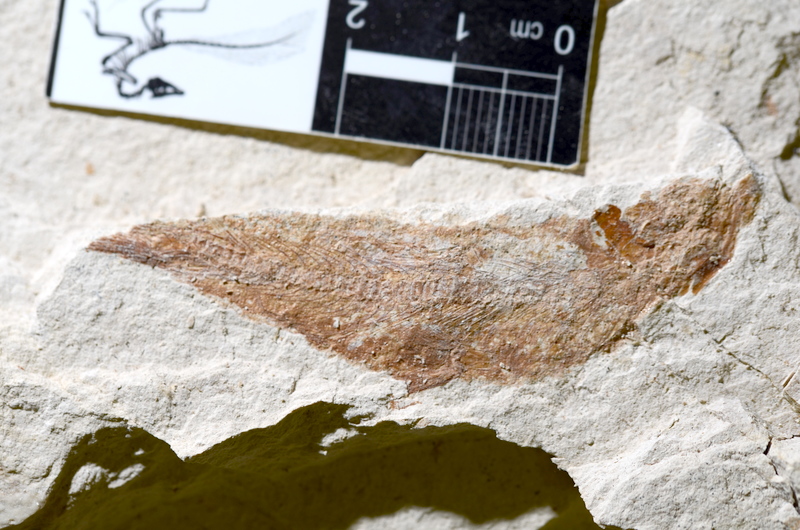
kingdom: Animalia
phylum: Chordata
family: Ascalaboidae
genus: Tharsis
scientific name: Tharsis dubius
